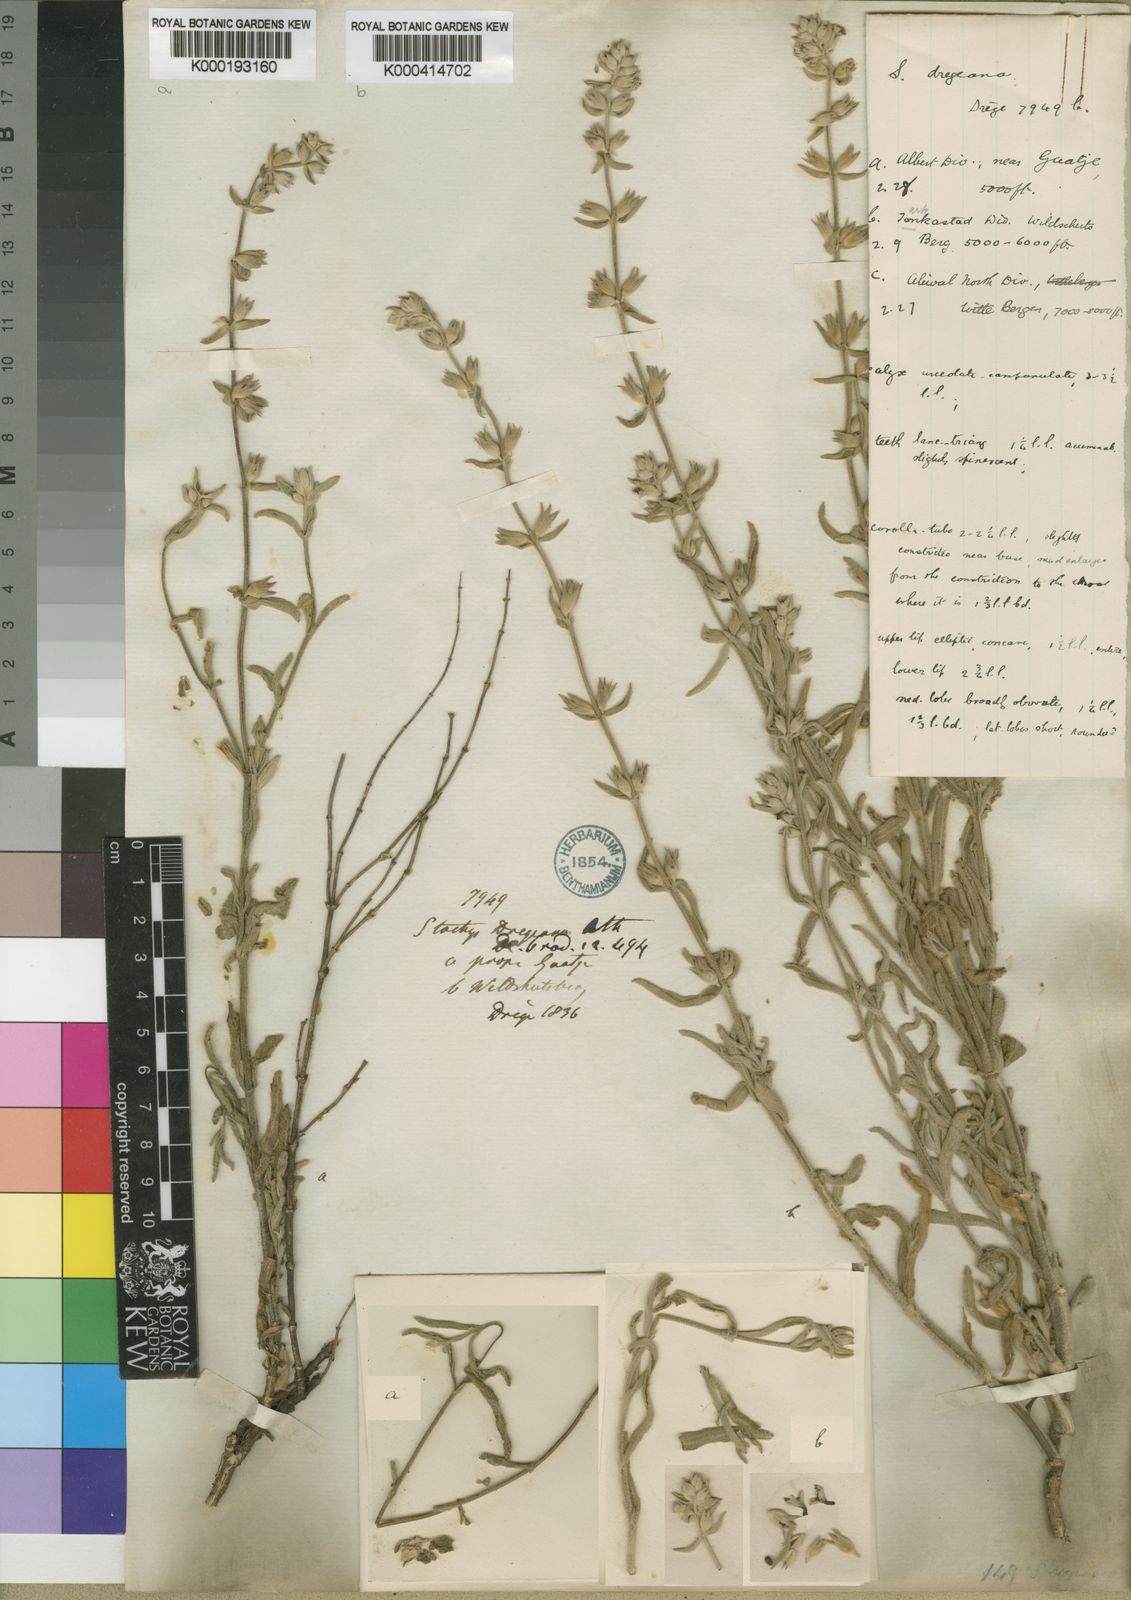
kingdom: Plantae
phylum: Tracheophyta
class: Magnoliopsida
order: Lamiales
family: Lamiaceae
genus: Stachys
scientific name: Stachys dregeana
